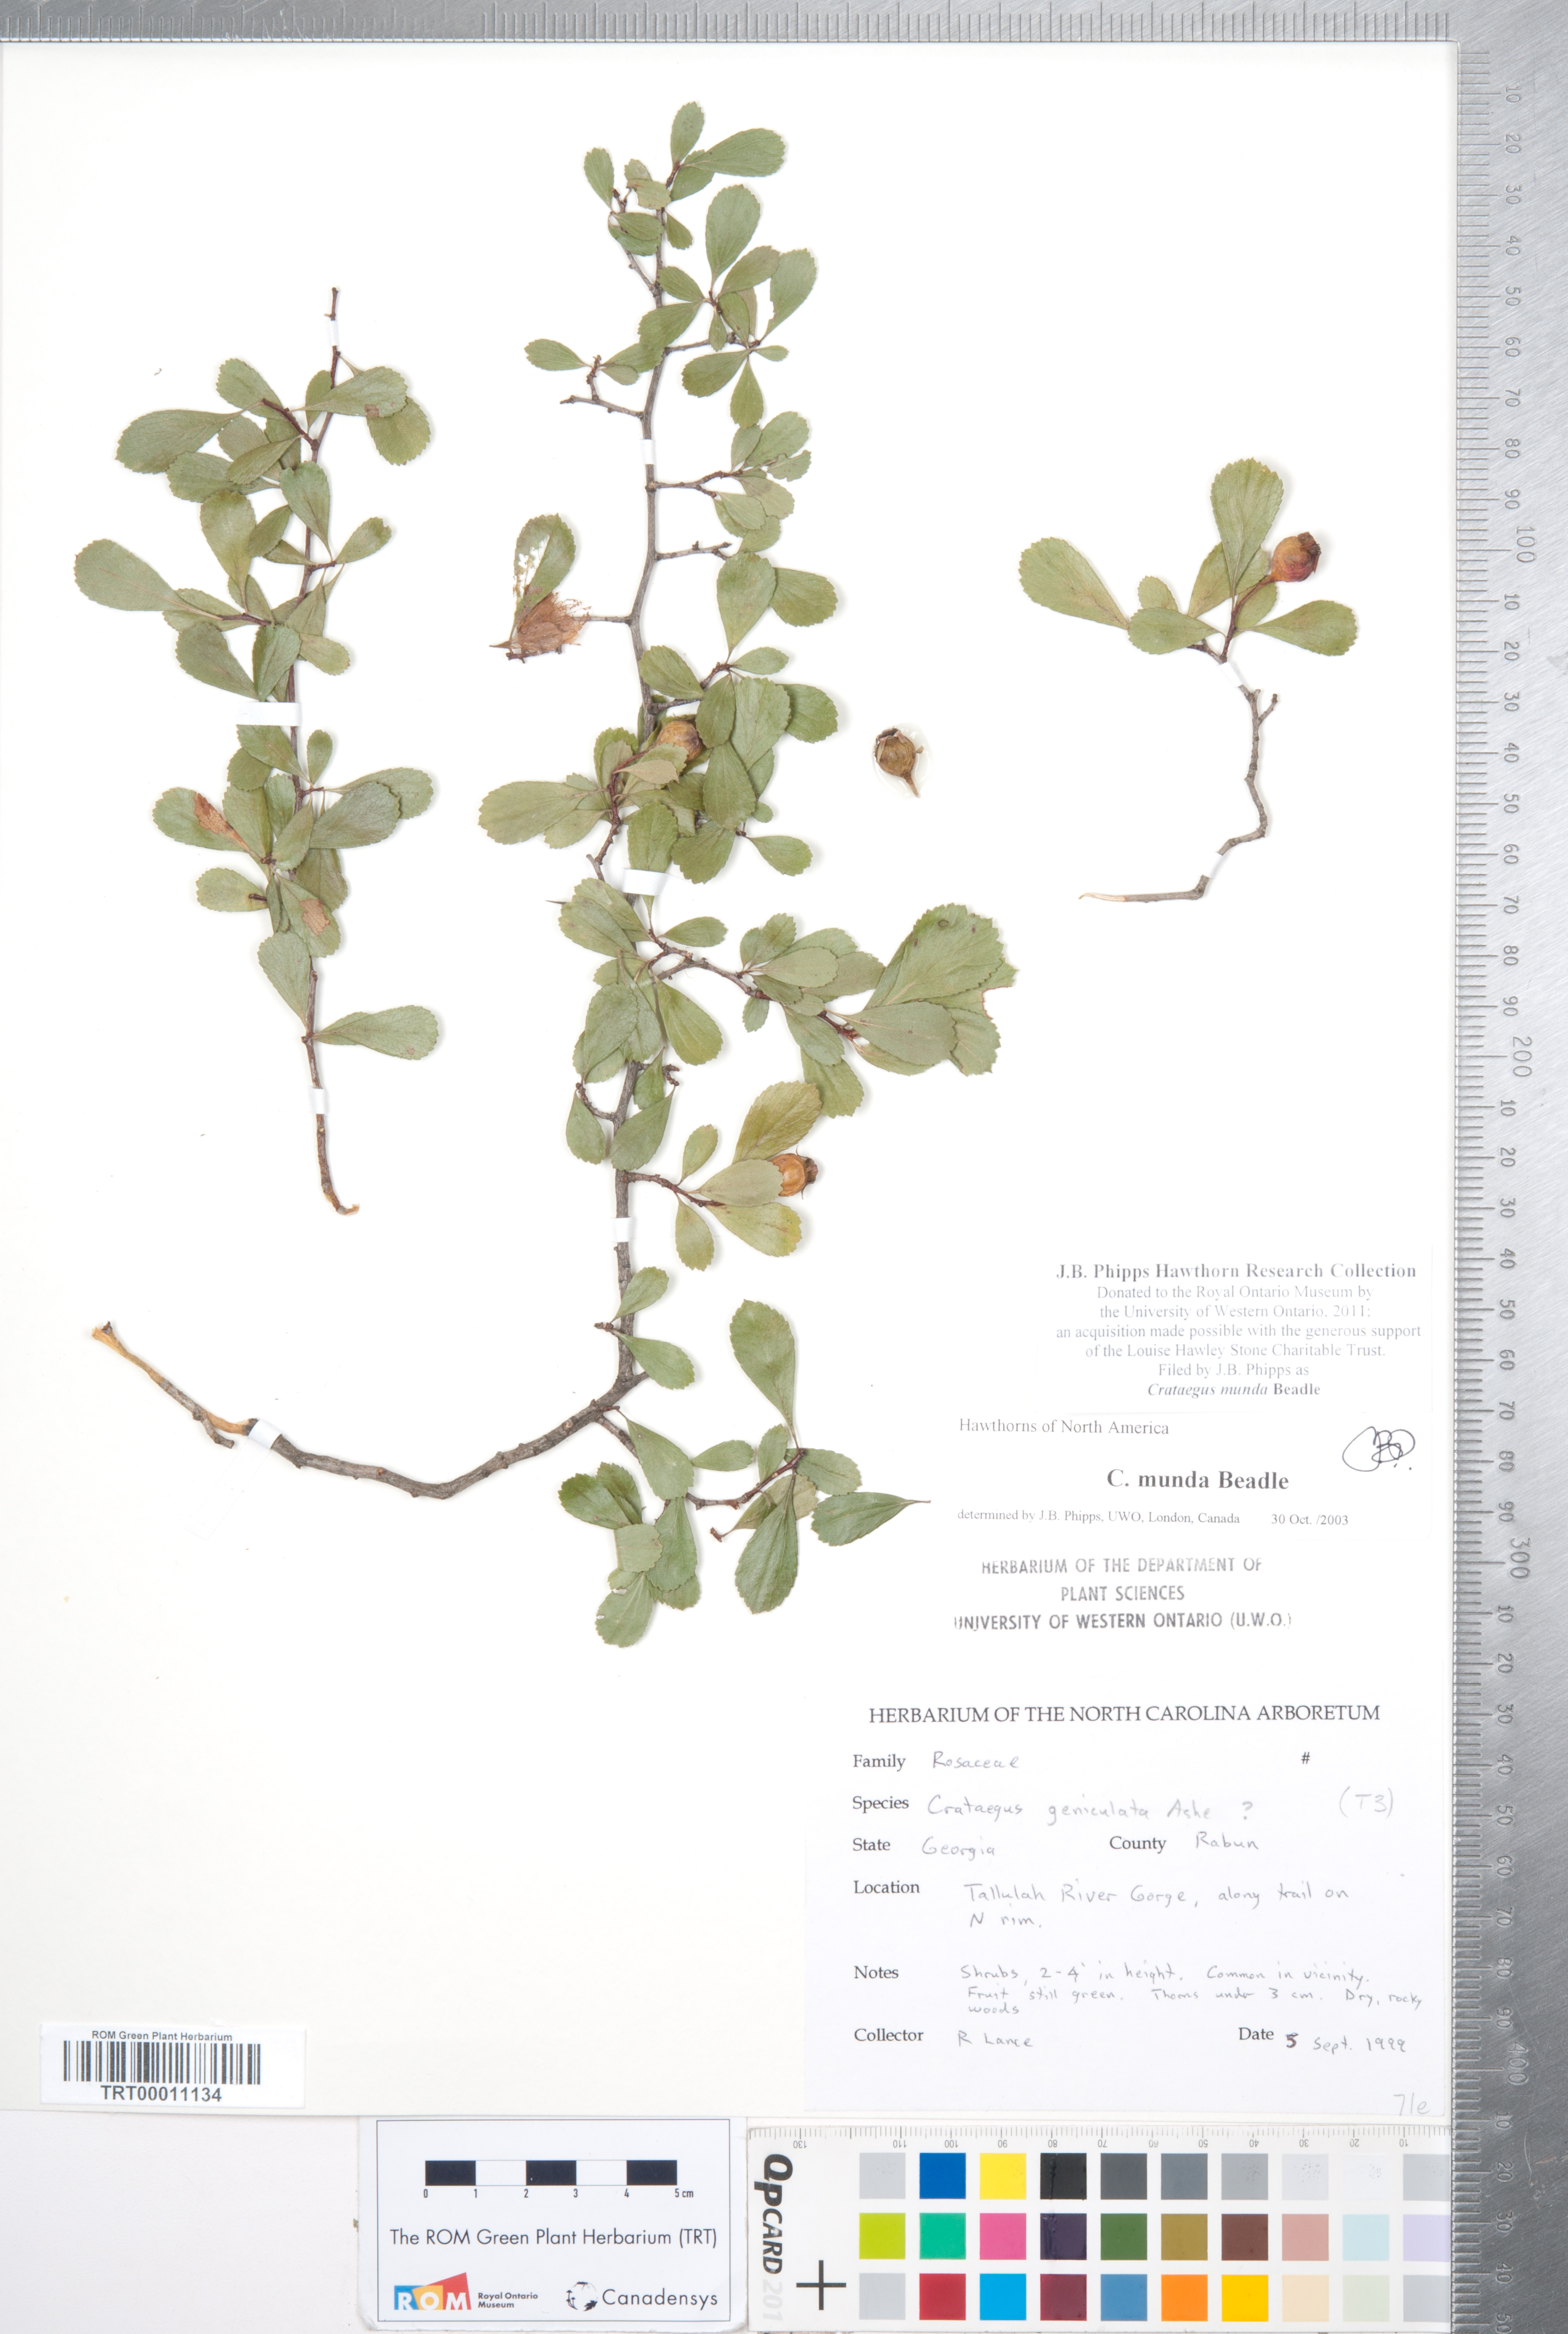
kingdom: Plantae
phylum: Tracheophyta
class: Magnoliopsida
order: Rosales
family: Rosaceae
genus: Crataegus
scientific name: Crataegus munda
